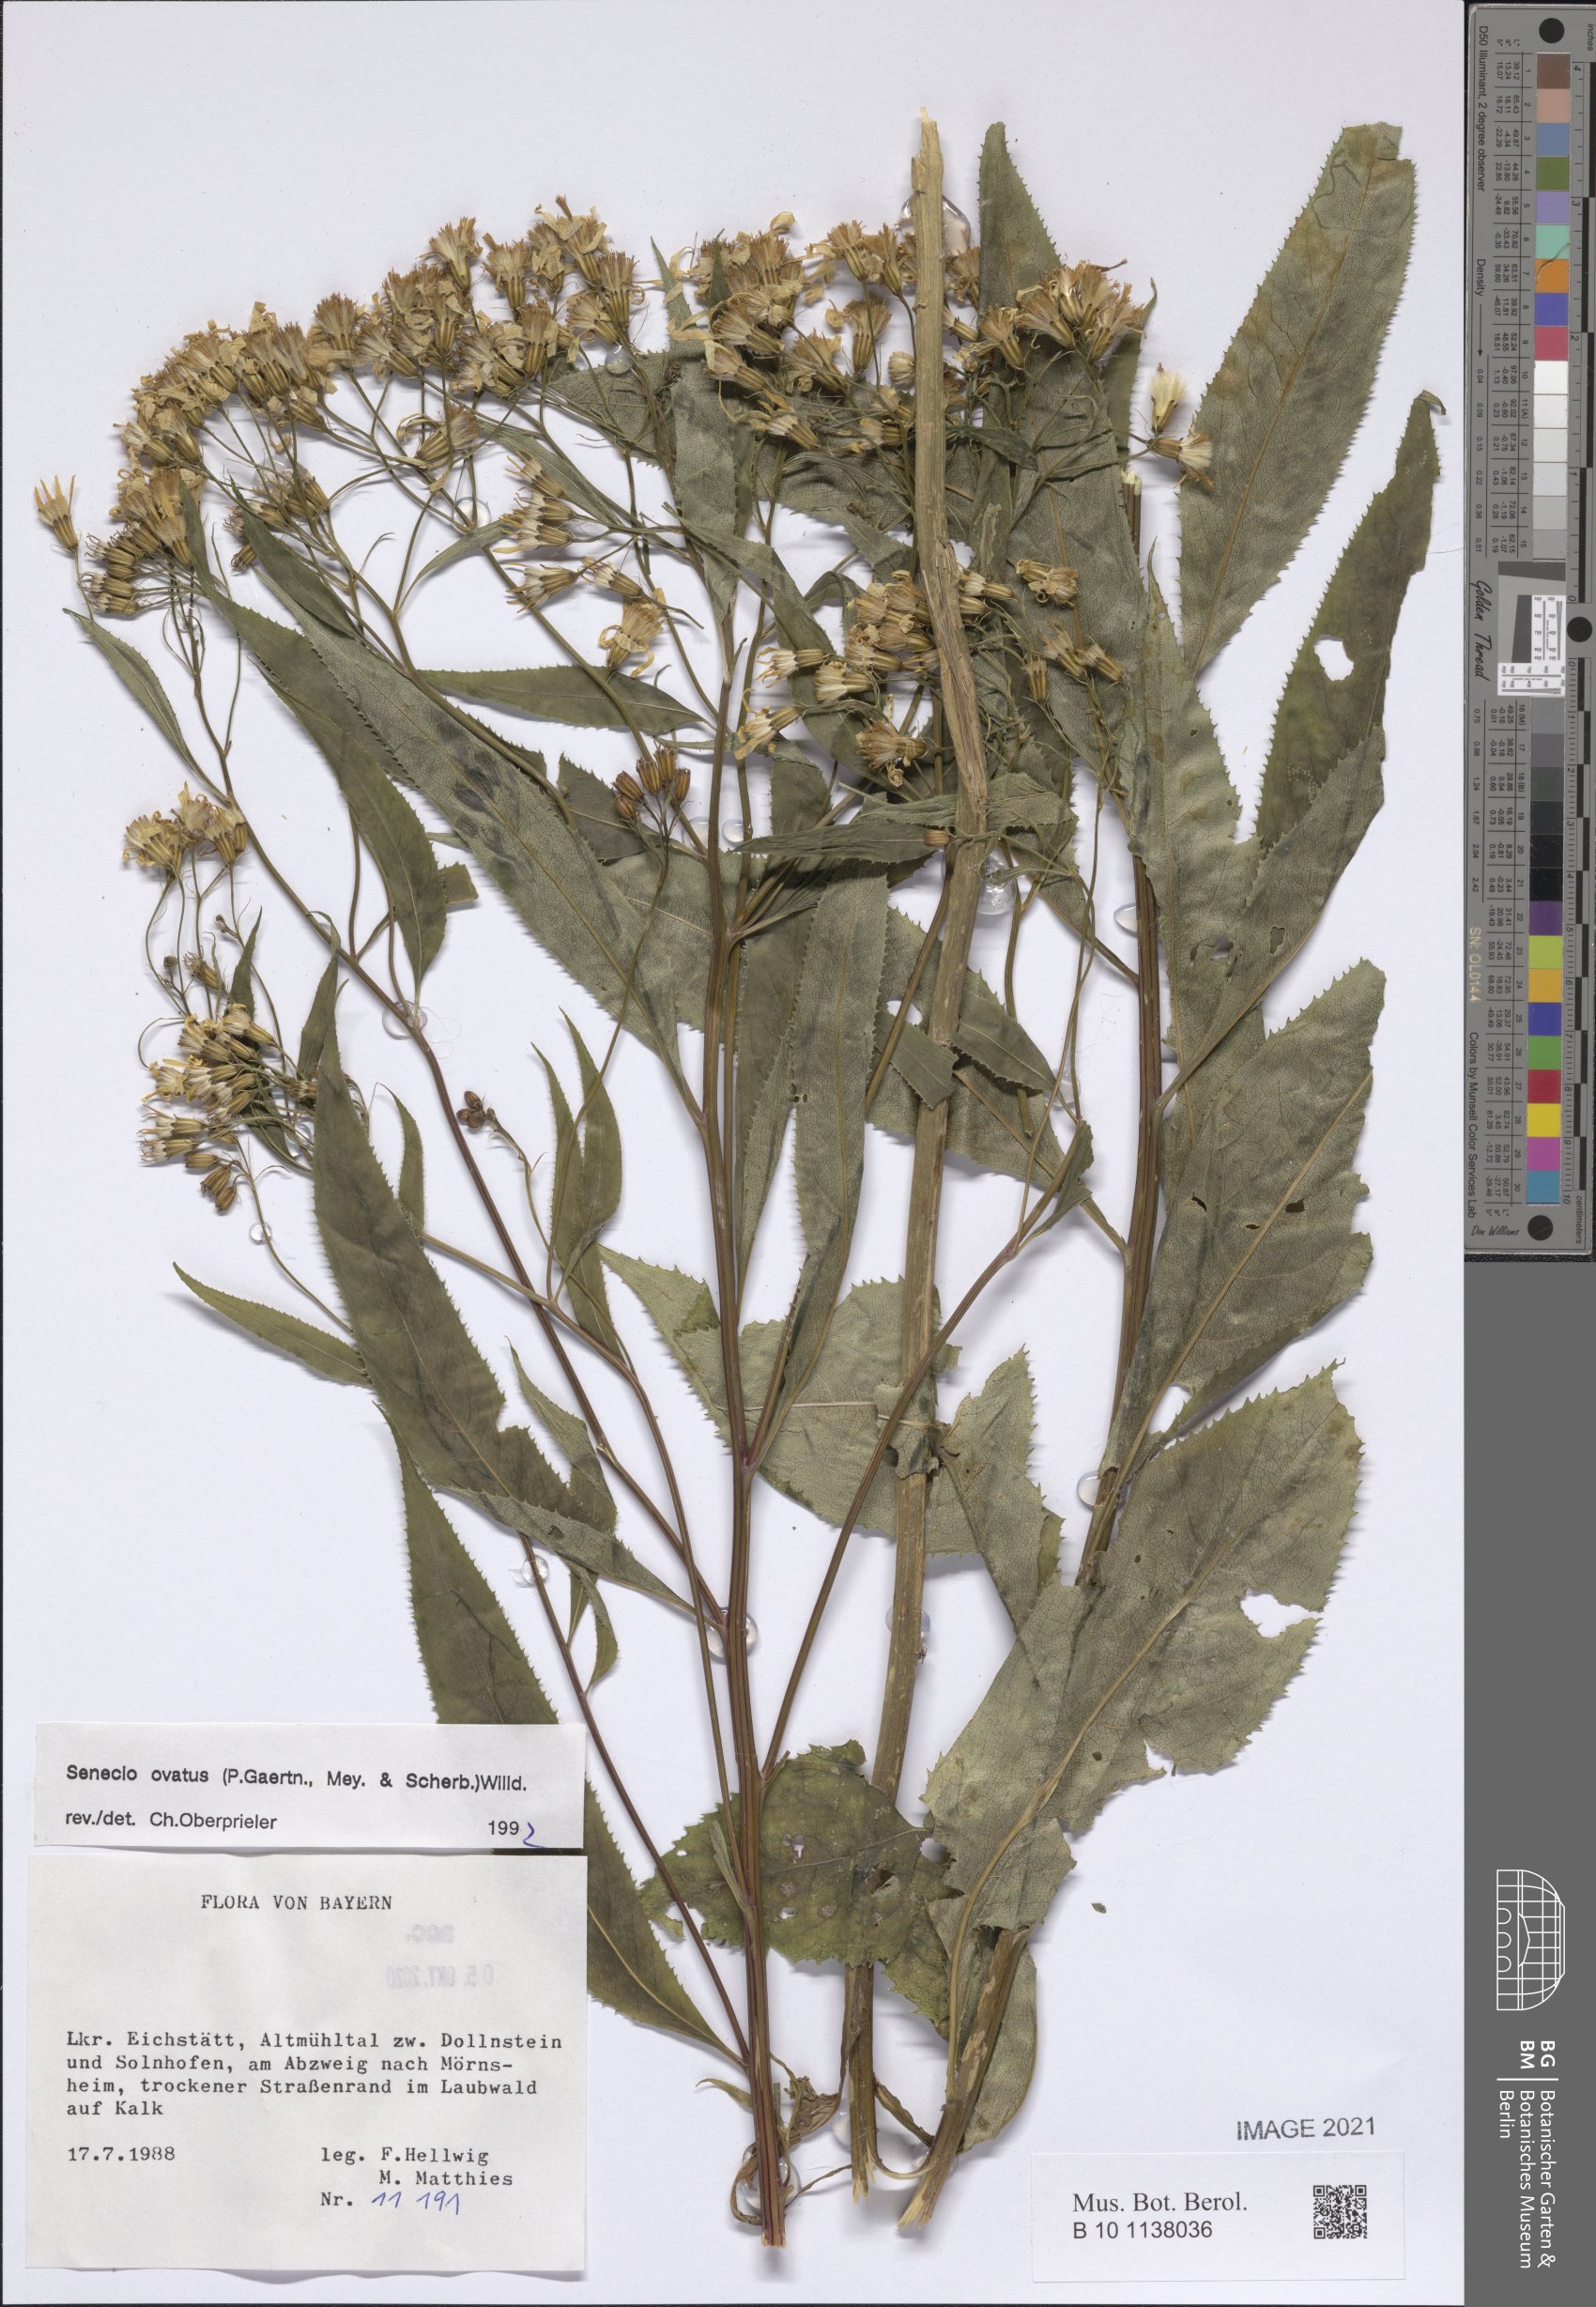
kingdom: Plantae
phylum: Tracheophyta
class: Magnoliopsida
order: Asterales
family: Asteraceae
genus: Senecio
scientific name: Senecio ovatus
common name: Wood ragwort
